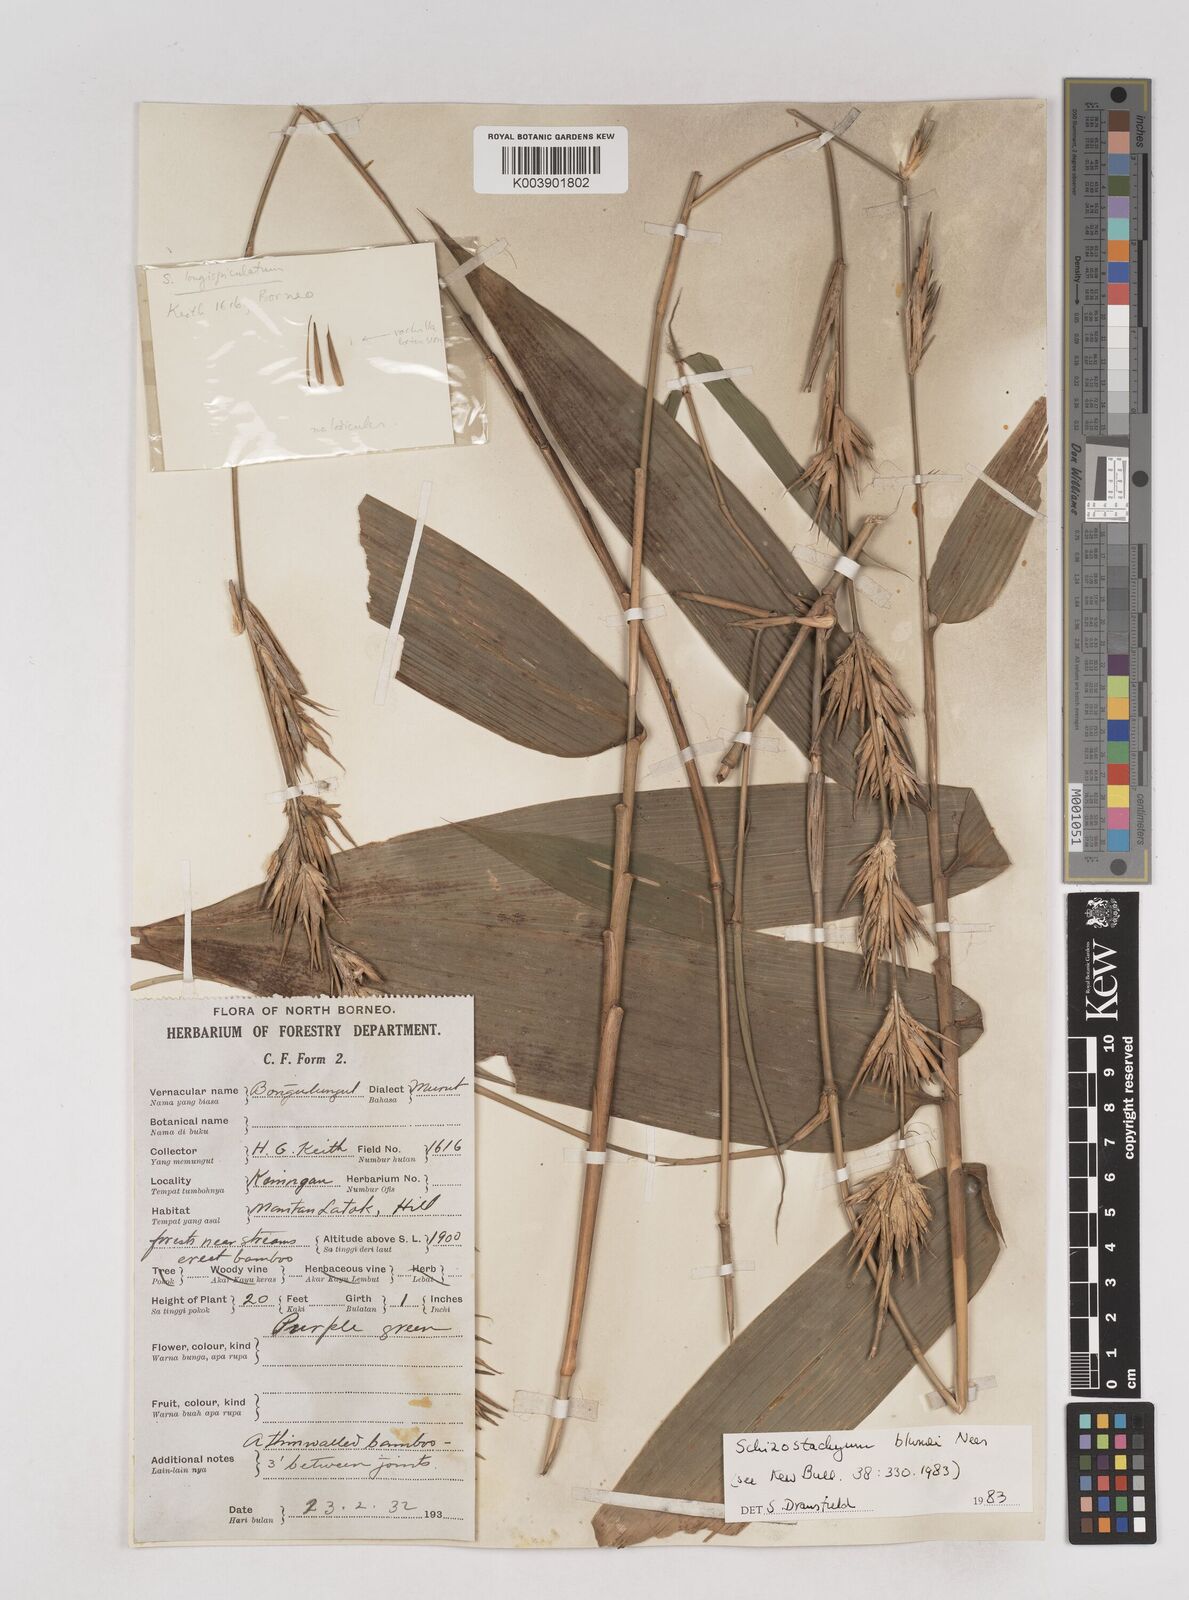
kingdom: Plantae
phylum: Tracheophyta
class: Liliopsida
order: Poales
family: Poaceae
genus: Schizostachyum
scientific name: Schizostachyum blumei
